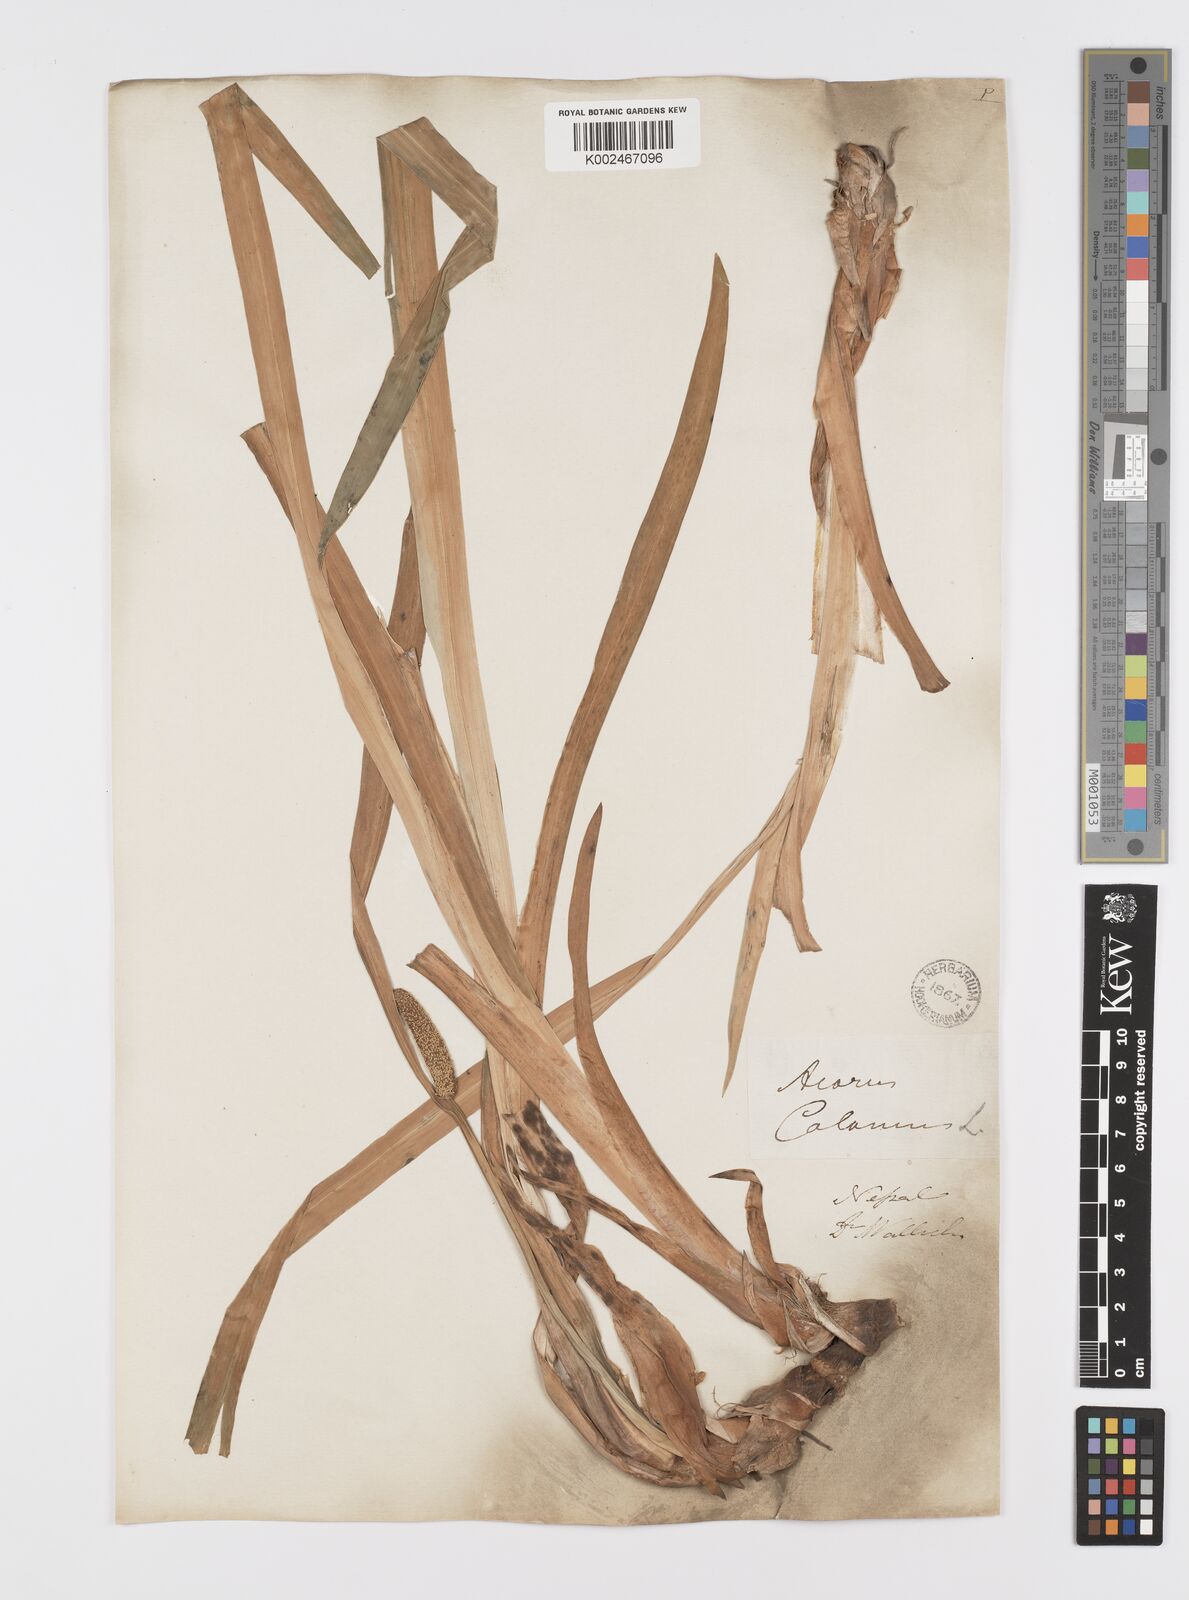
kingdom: Plantae
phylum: Tracheophyta
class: Liliopsida
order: Acorales
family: Acoraceae
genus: Acorus
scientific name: Acorus calamus
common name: Sweet-flag
